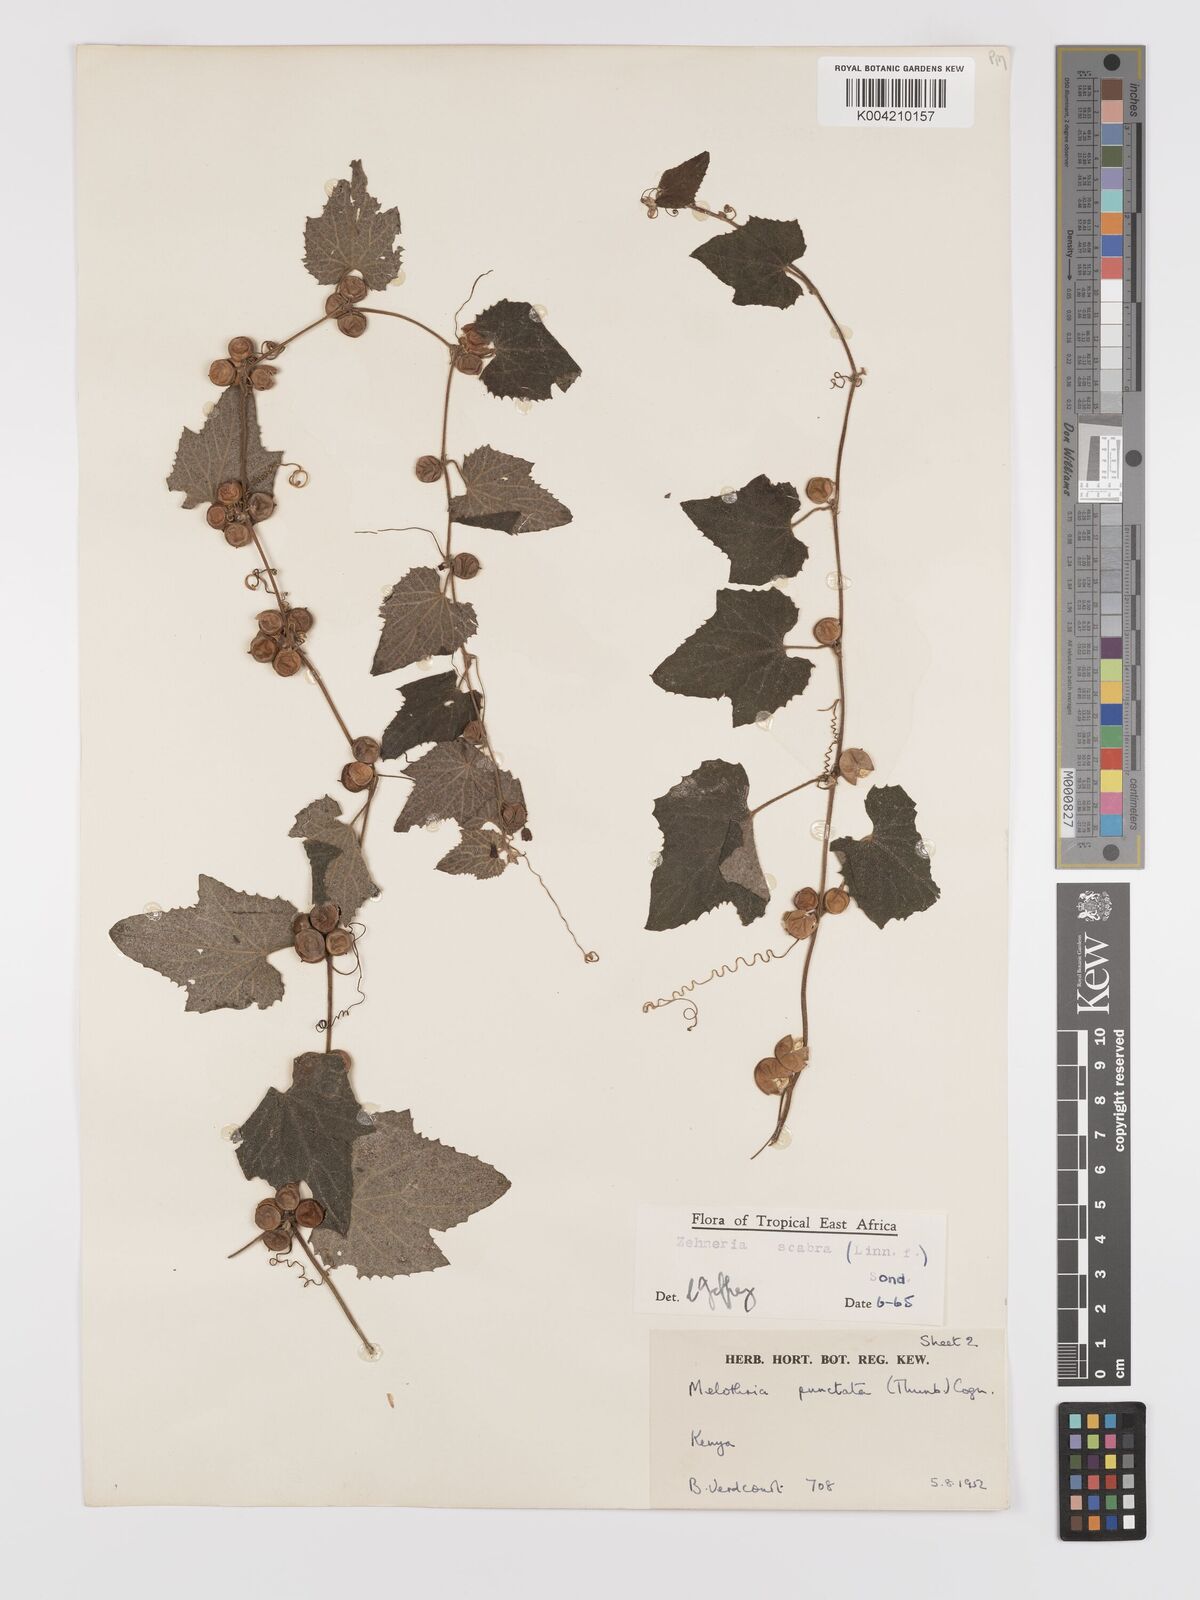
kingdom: Plantae
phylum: Tracheophyta
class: Magnoliopsida
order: Cucurbitales
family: Cucurbitaceae
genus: Zehneria
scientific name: Zehneria scabra
